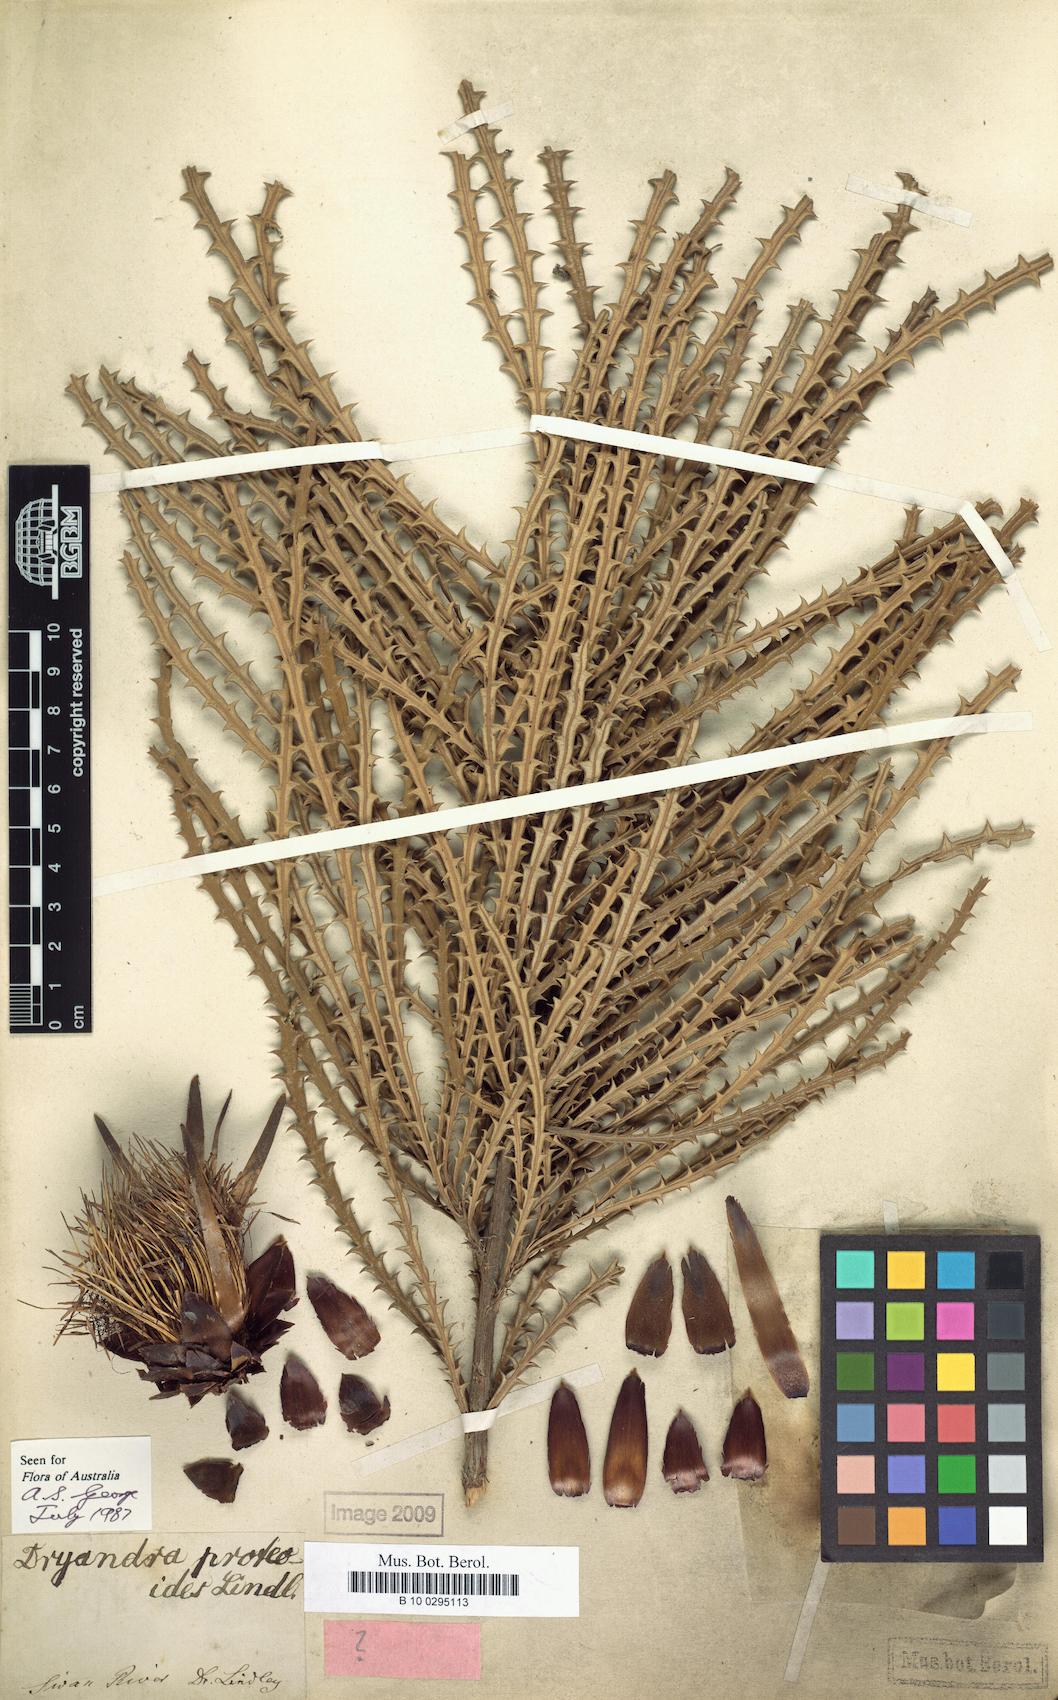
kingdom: Plantae
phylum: Tracheophyta
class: Magnoliopsida
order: Proteales
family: Proteaceae
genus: Banksia
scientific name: Banksia proteoides
